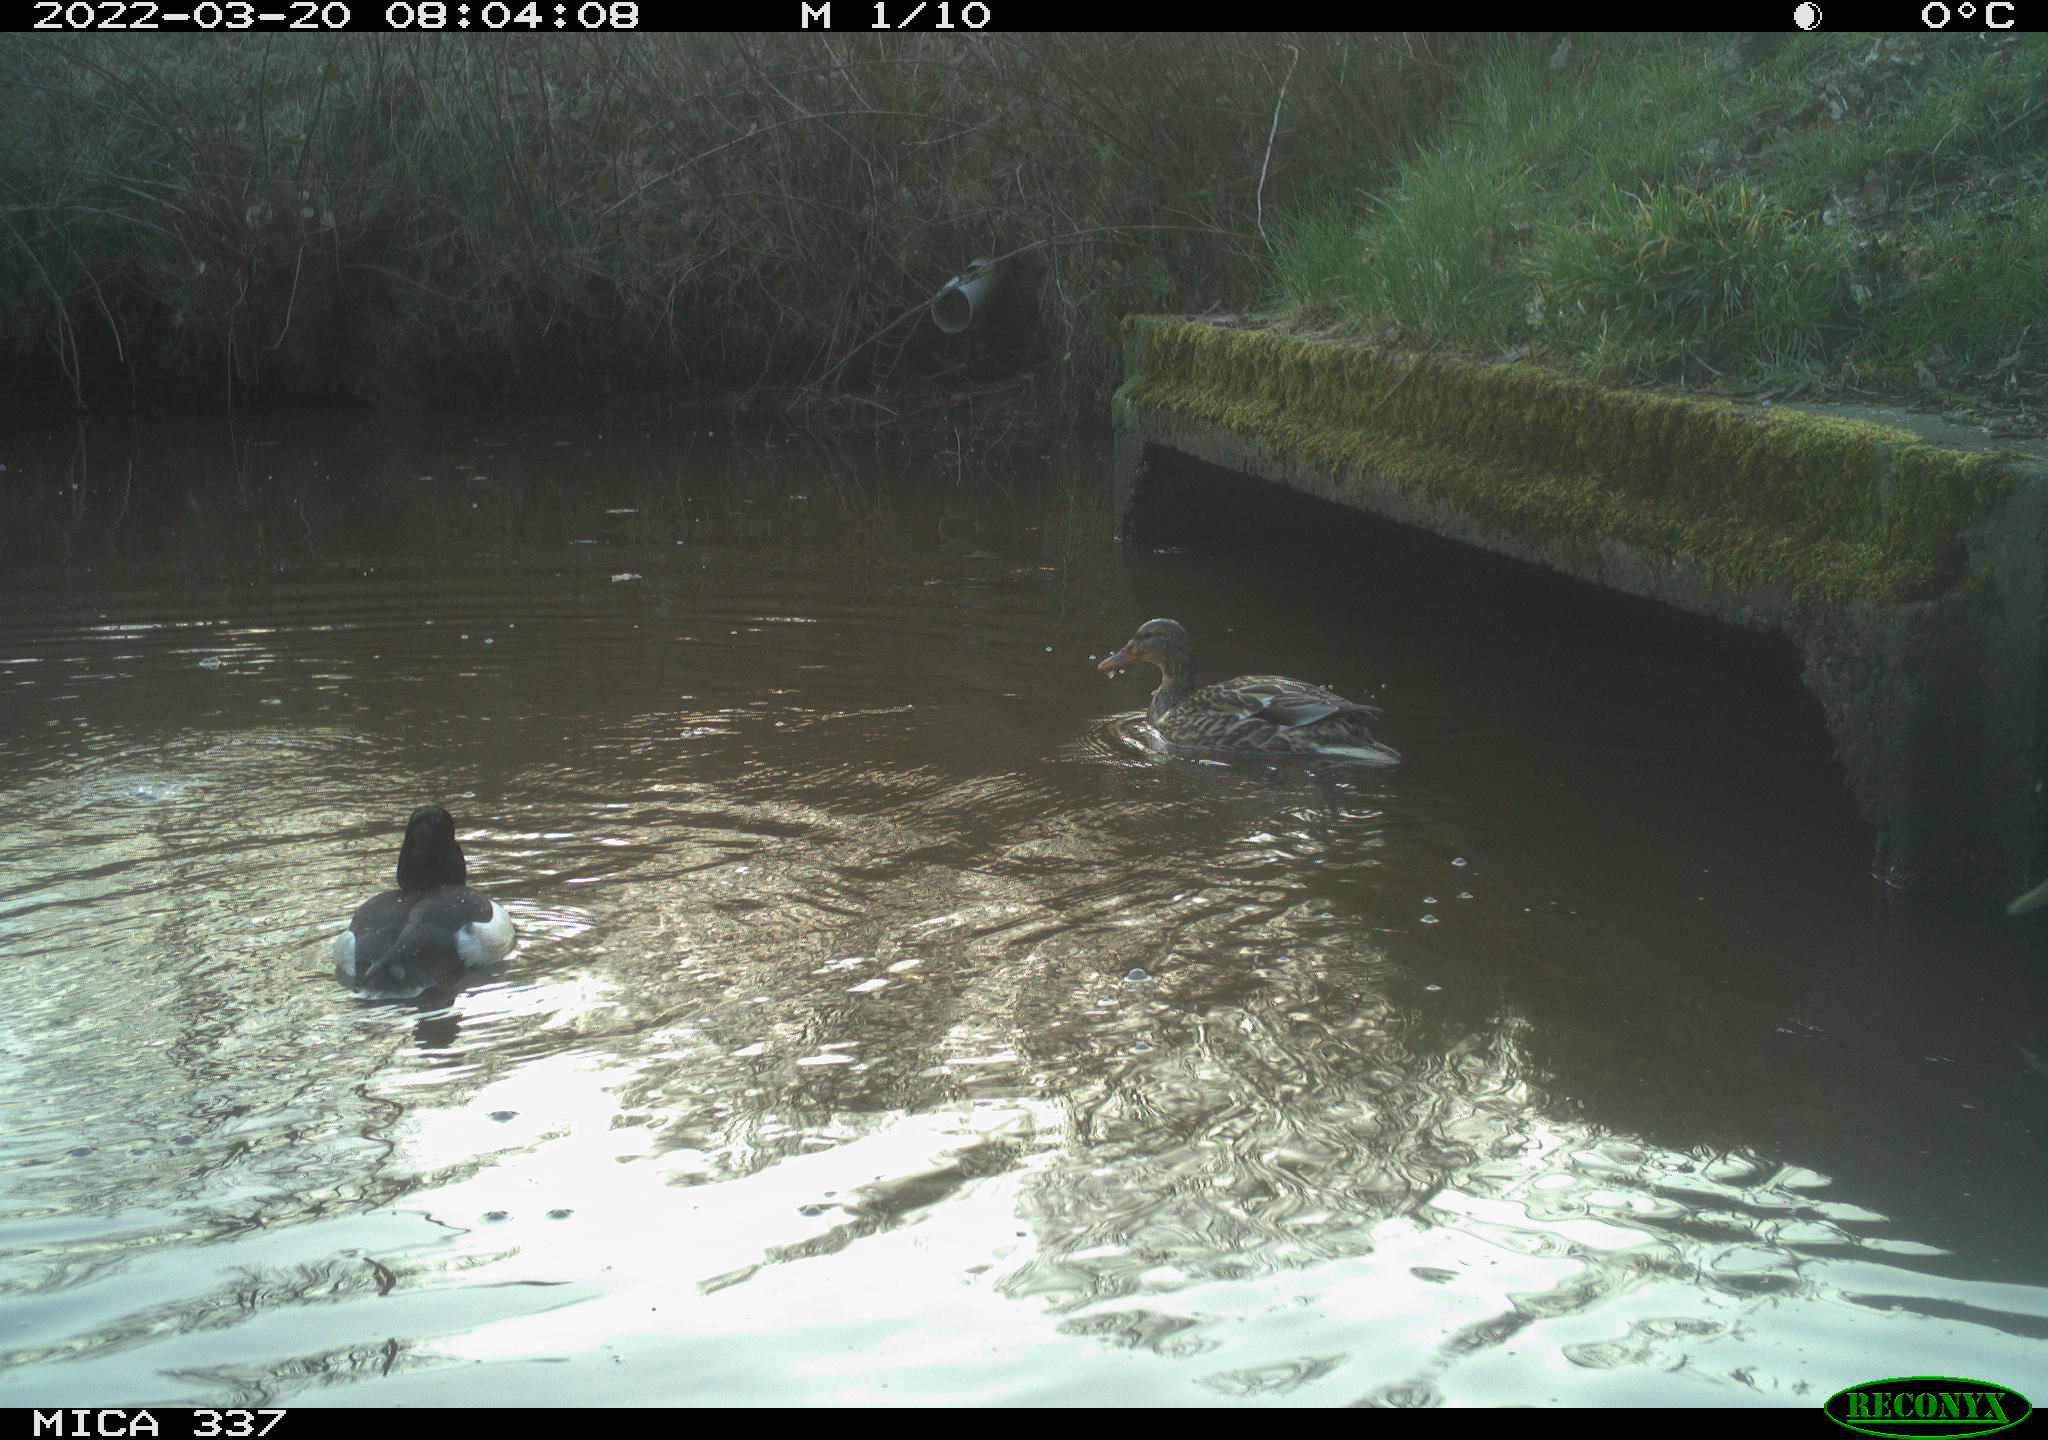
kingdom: Animalia
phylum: Chordata
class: Aves
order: Anseriformes
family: Anatidae
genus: Anas
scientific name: Anas platyrhynchos
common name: Mallard
